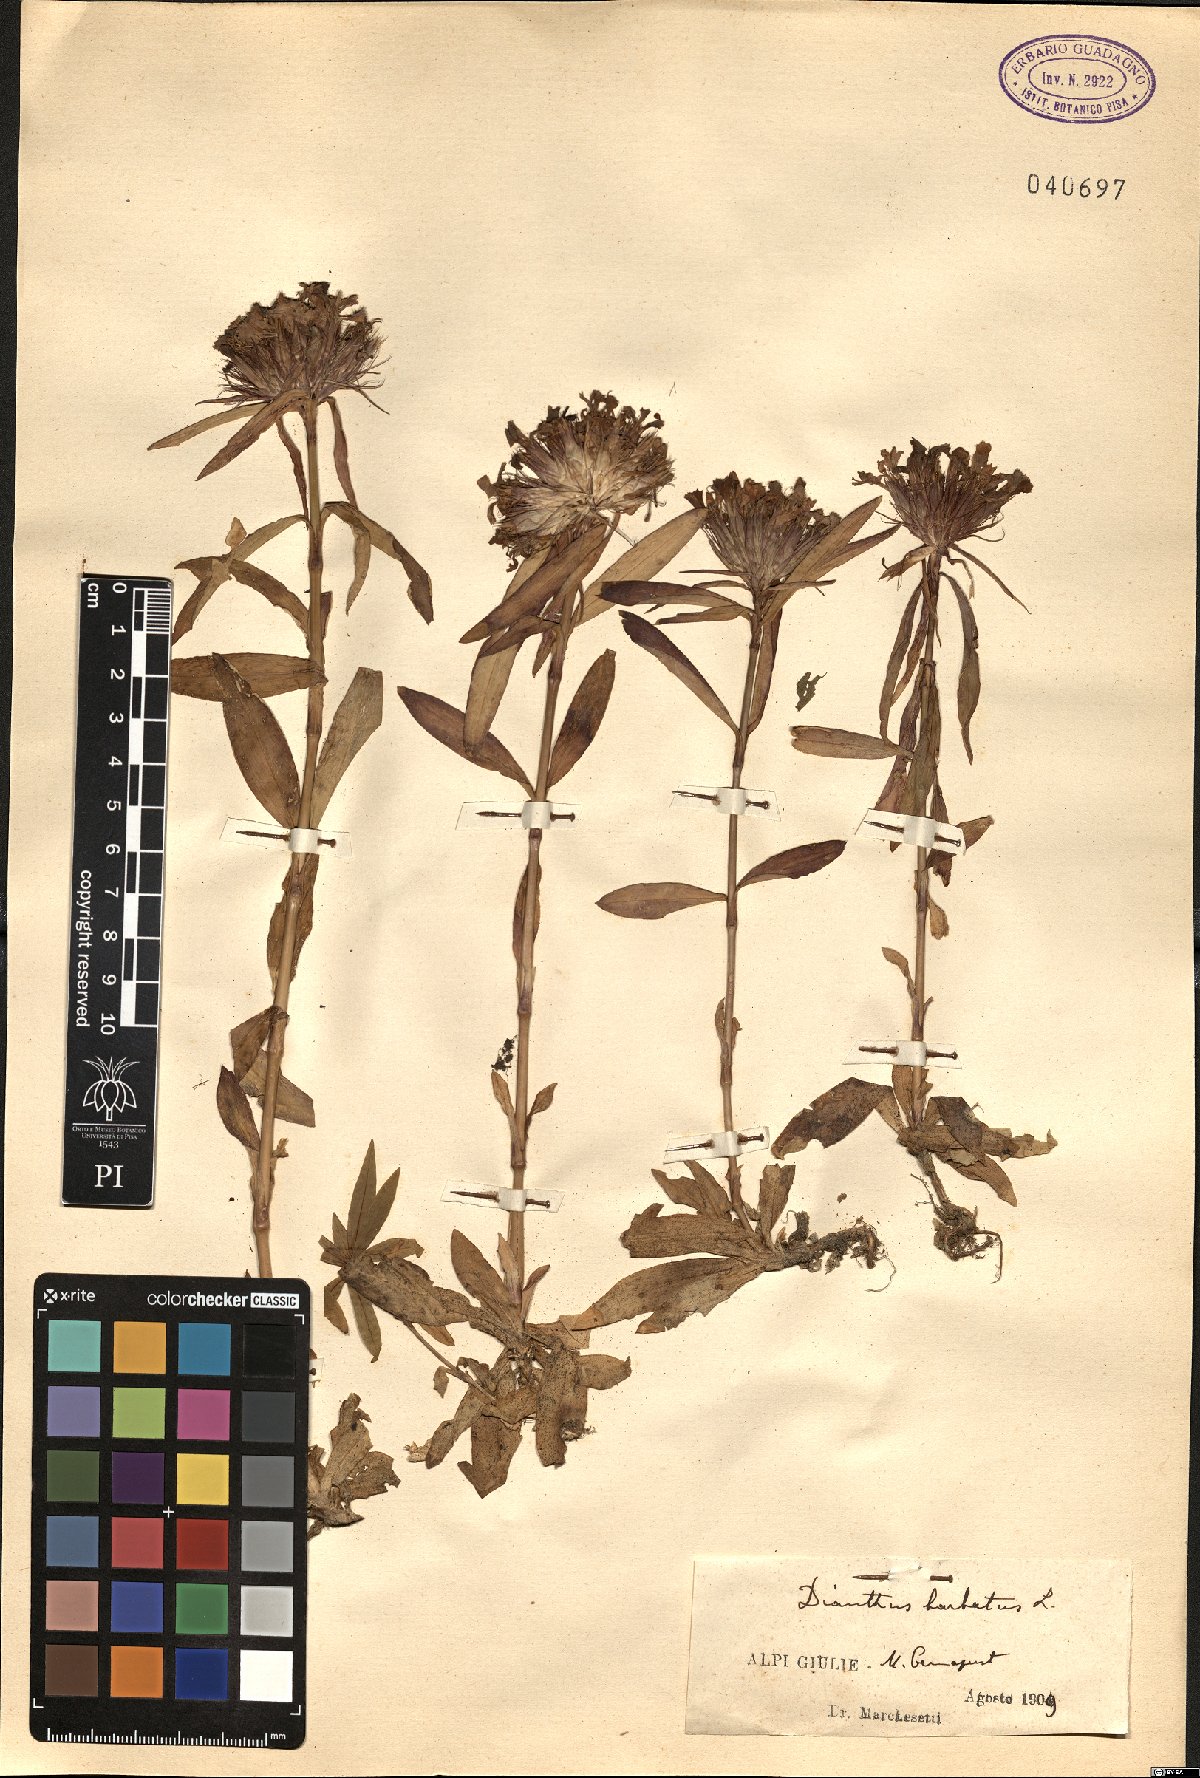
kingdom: Plantae
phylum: Tracheophyta
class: Magnoliopsida
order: Caryophyllales
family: Caryophyllaceae
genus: Dianthus
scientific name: Dianthus barbatus
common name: Sweet-william
